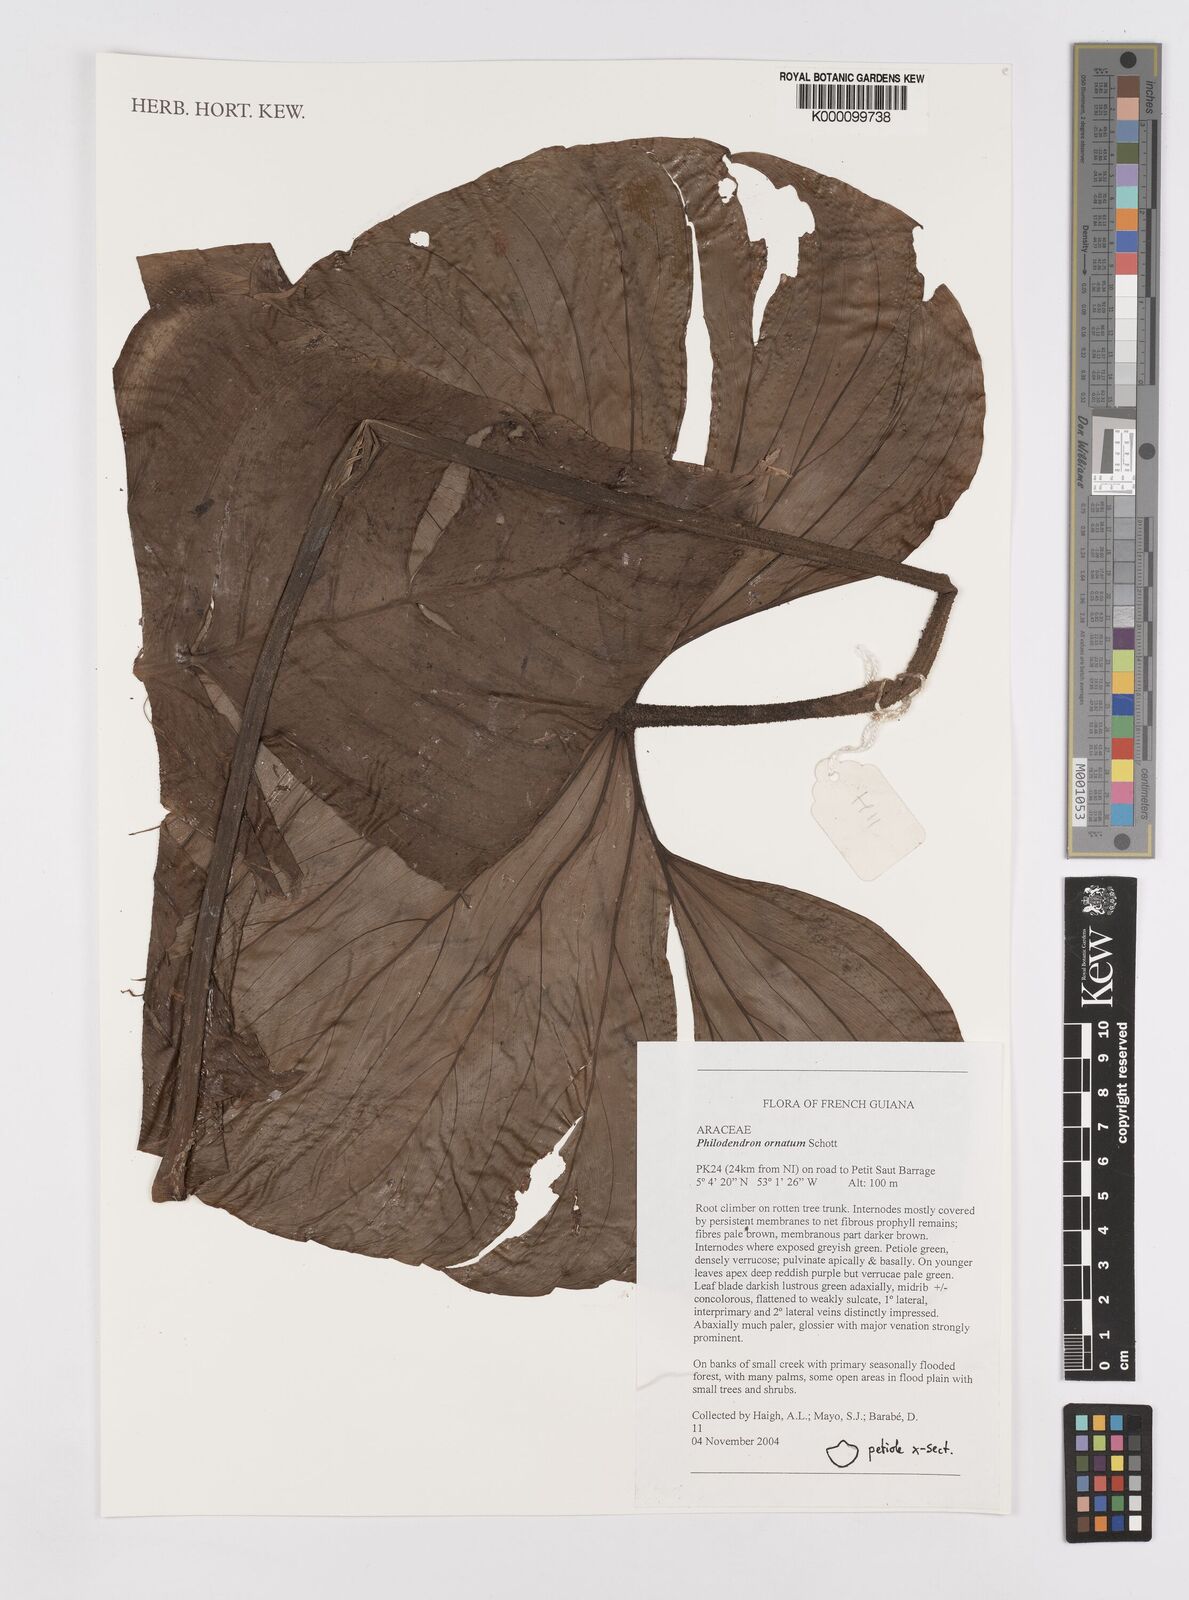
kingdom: Plantae
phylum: Tracheophyta
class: Liliopsida
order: Alismatales
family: Araceae
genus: Philodendron
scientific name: Philodendron ornatum
